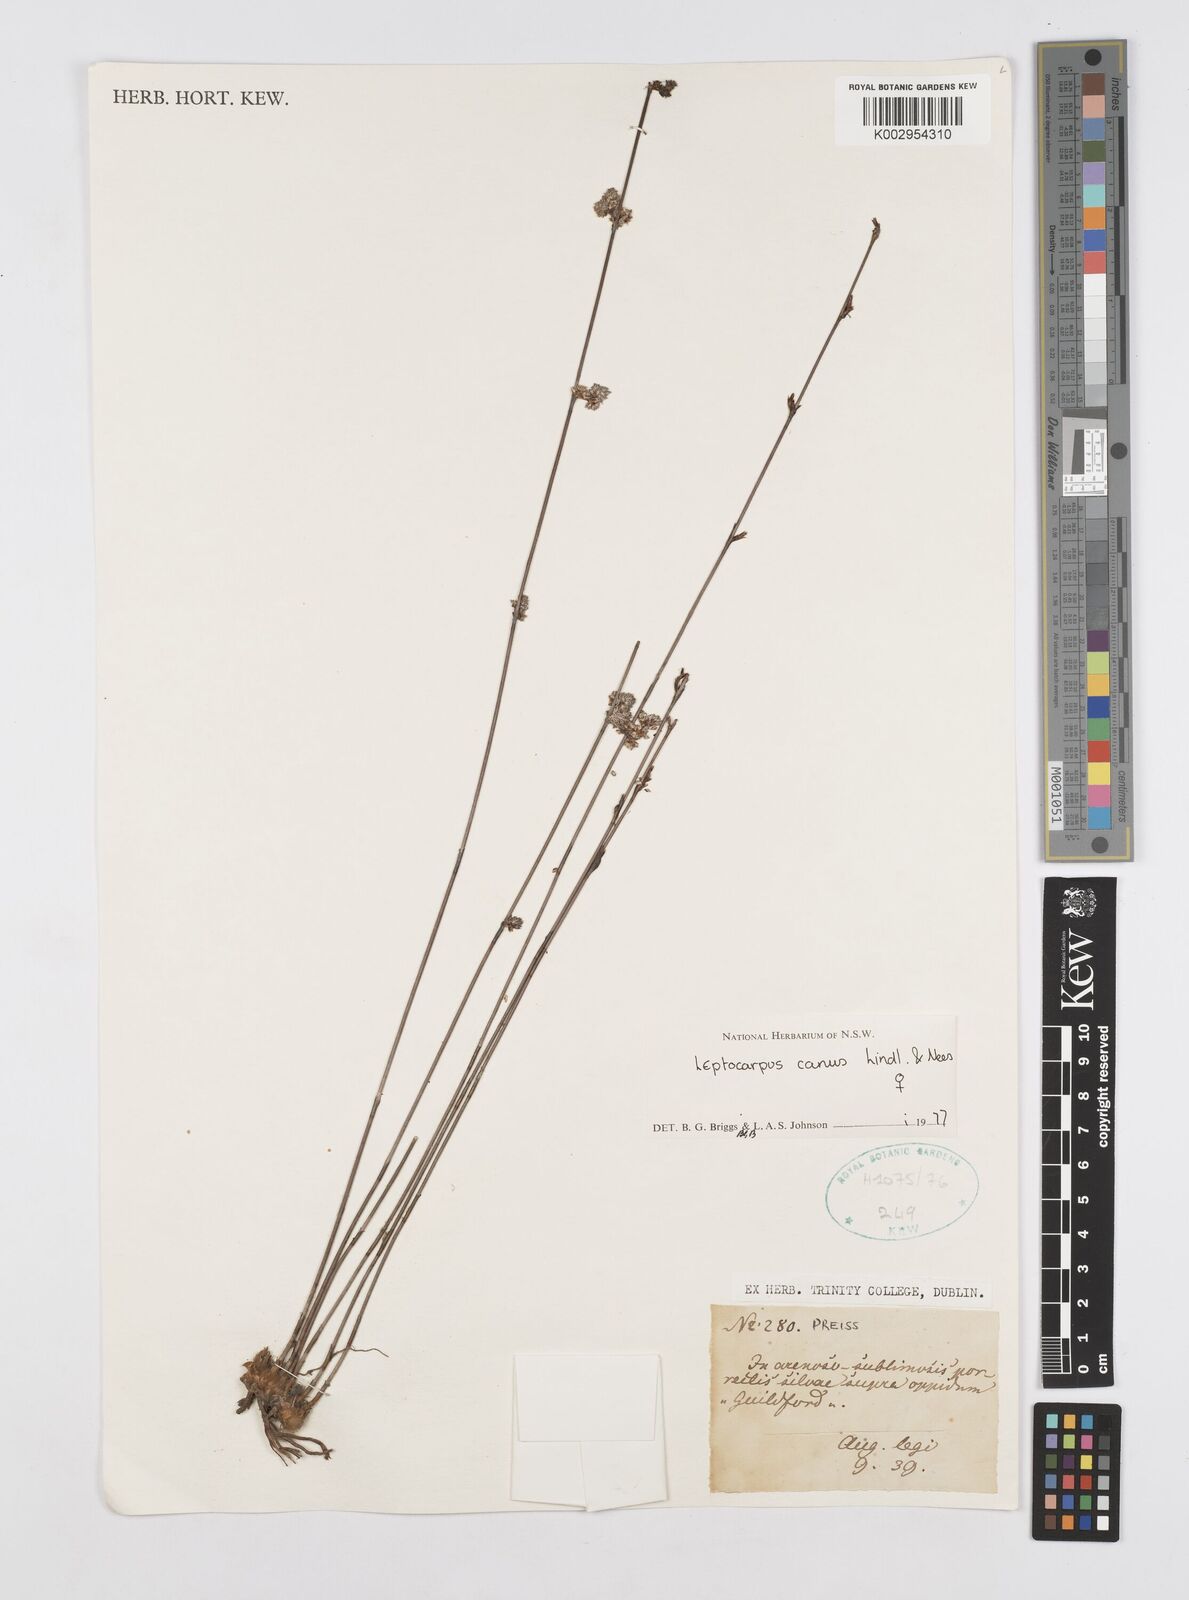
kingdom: Plantae
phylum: Tracheophyta
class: Liliopsida
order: Poales
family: Restionaceae
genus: Leptocarpus
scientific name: Leptocarpus canus
